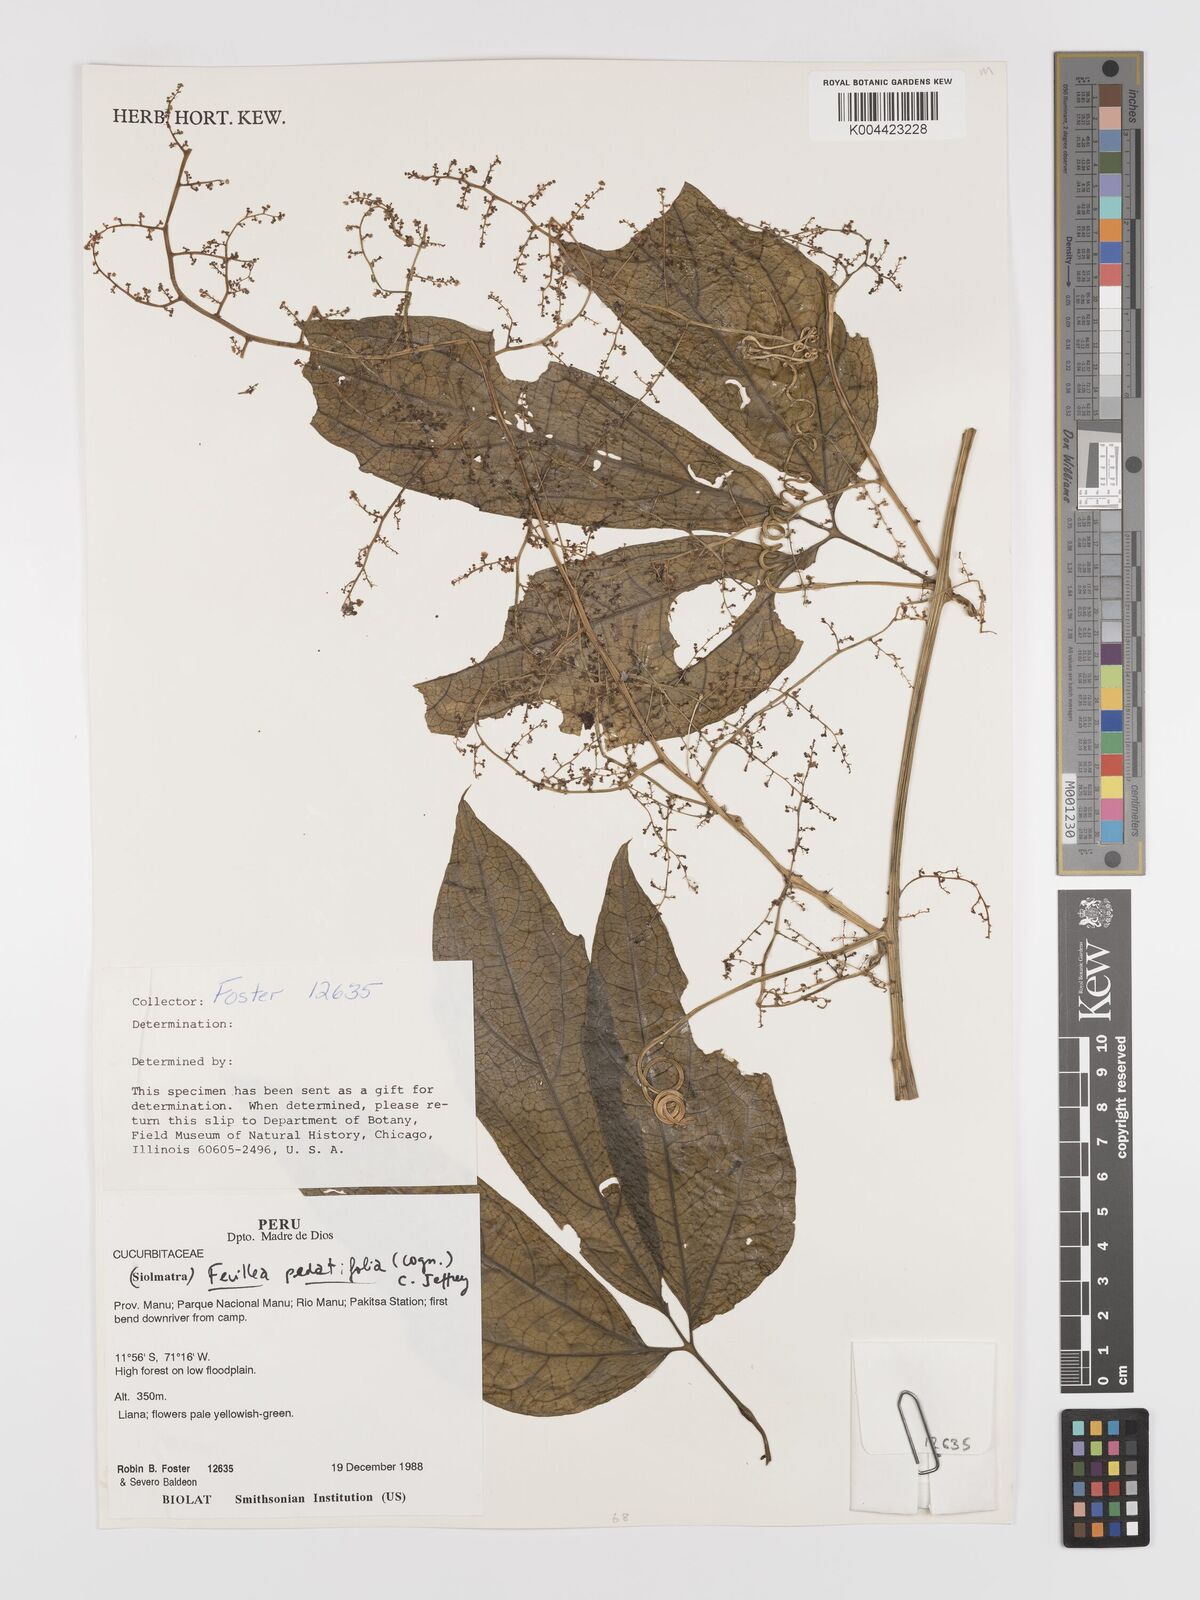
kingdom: Plantae
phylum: Tracheophyta
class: Magnoliopsida
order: Cucurbitales
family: Cucurbitaceae
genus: Fevillea
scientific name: Fevillea pedatifolia
